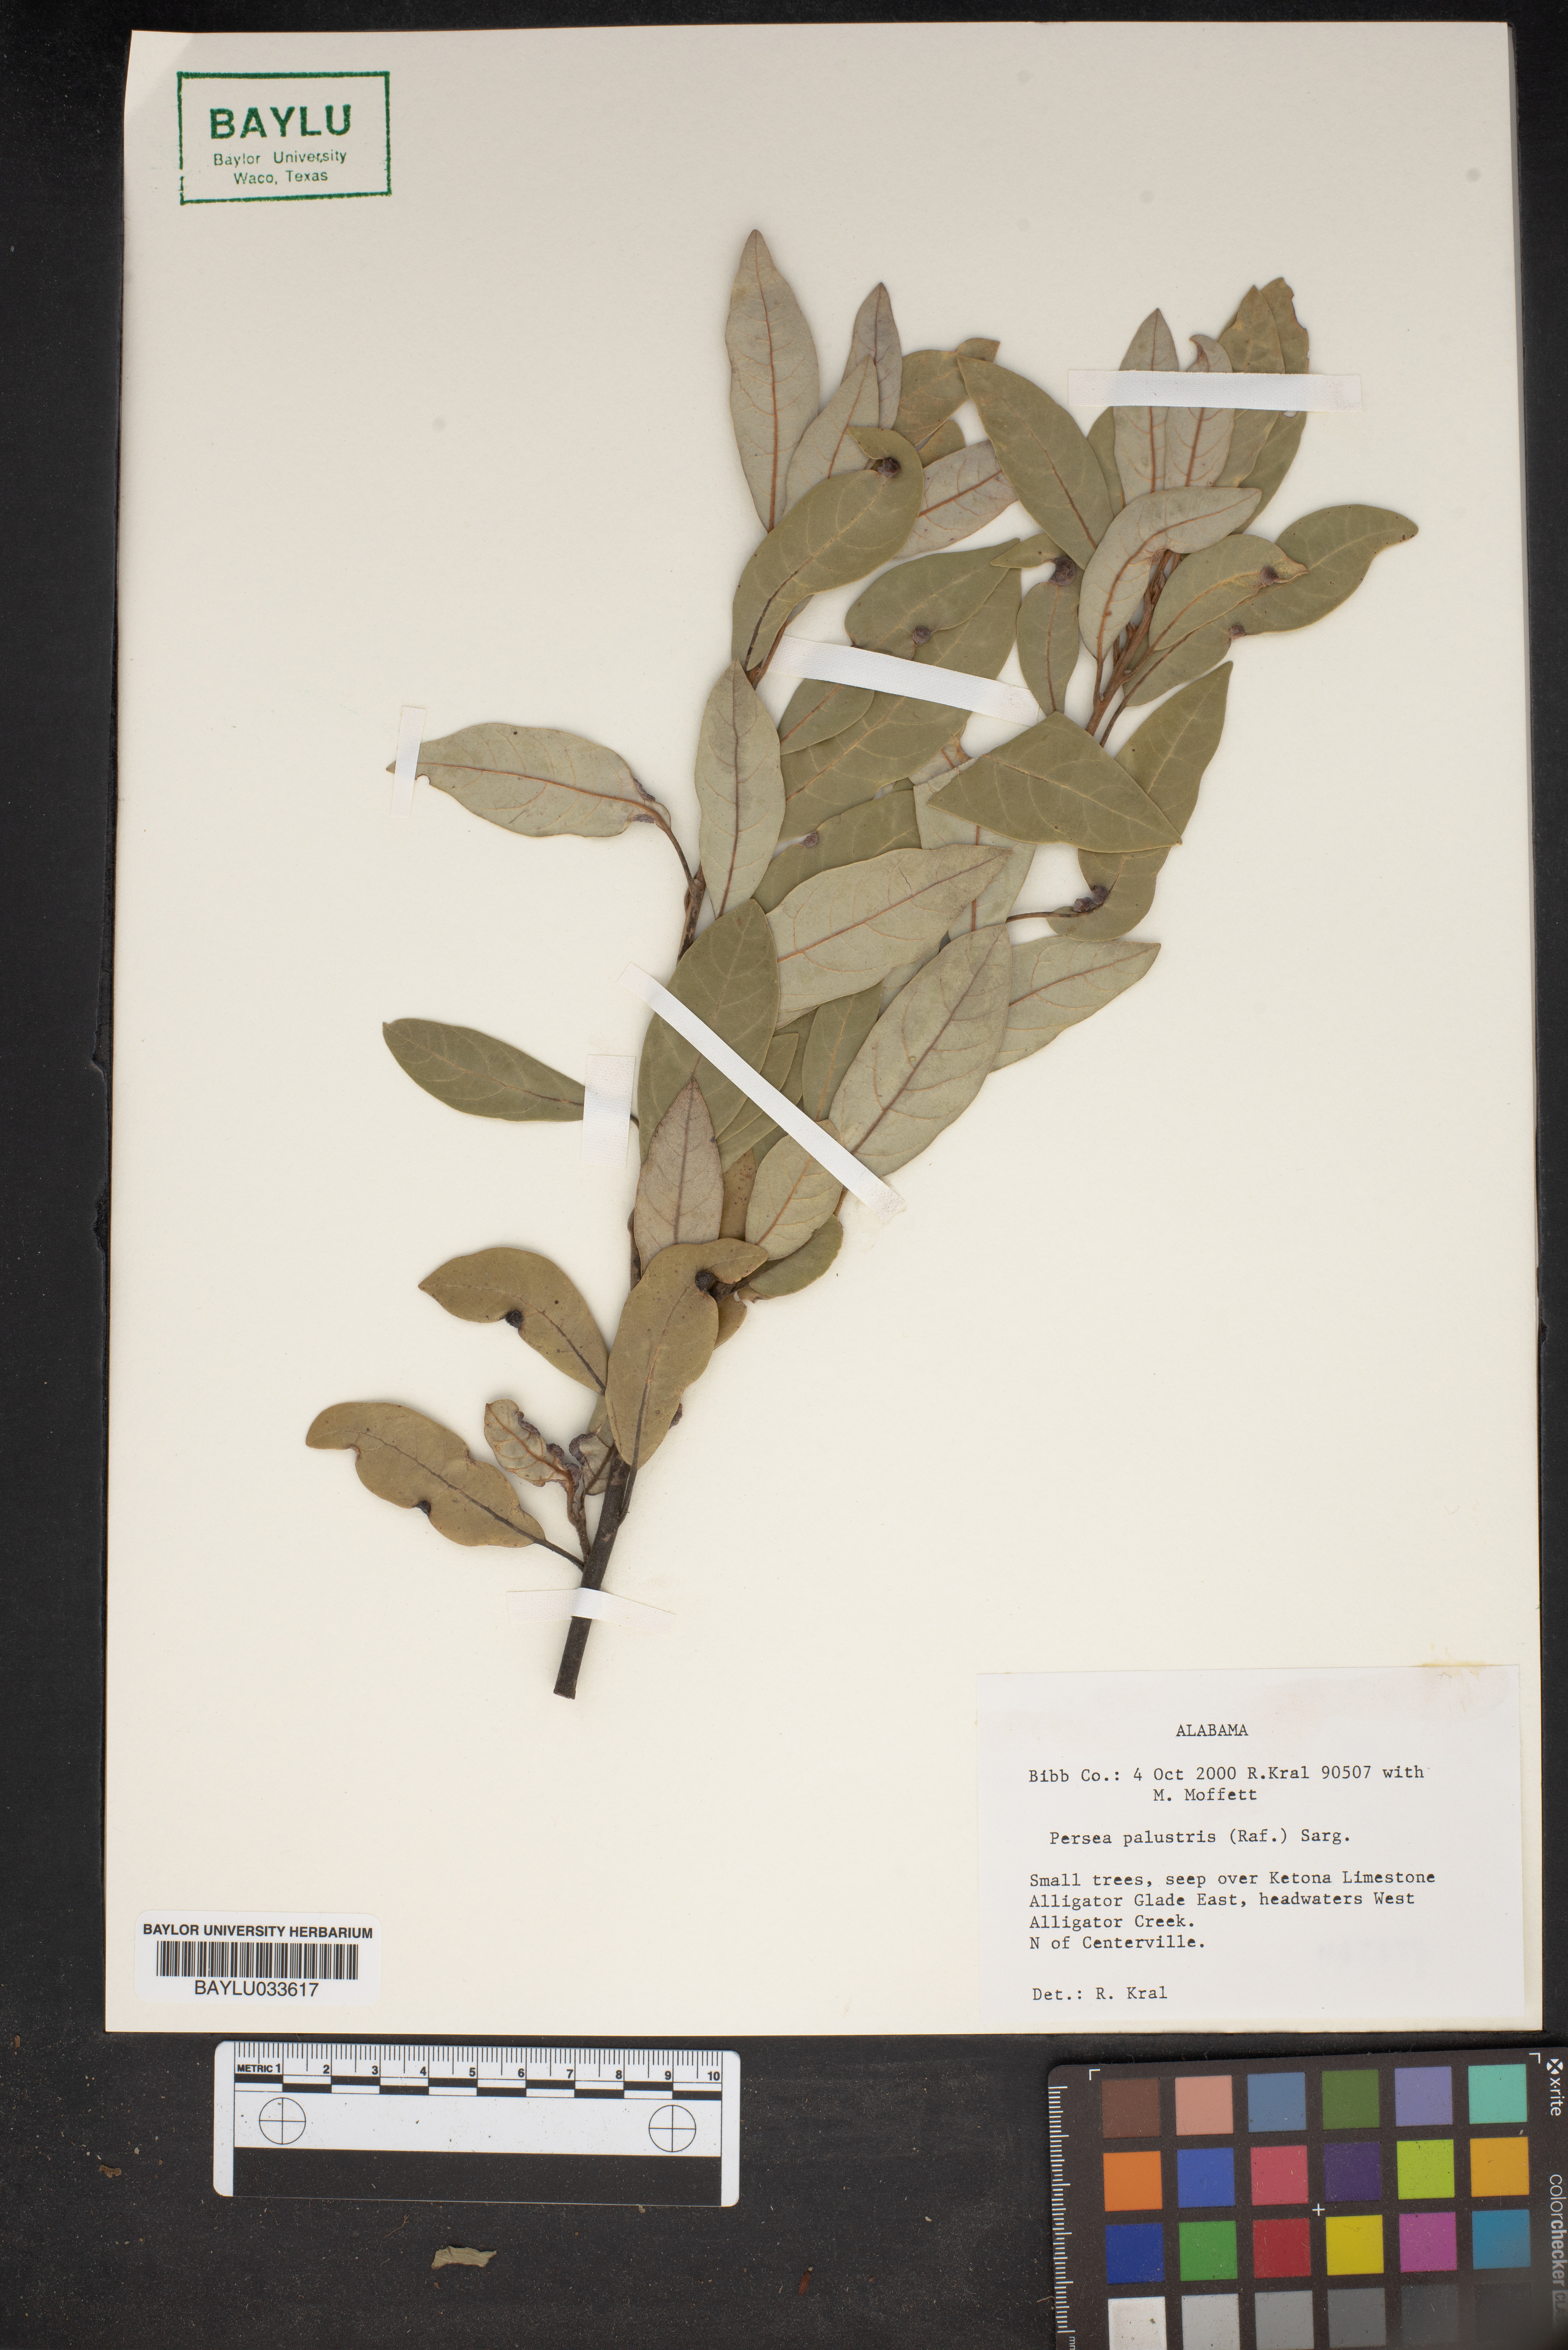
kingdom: Plantae
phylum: Tracheophyta
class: Magnoliopsida
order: Laurales
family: Lauraceae
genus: Persea
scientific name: Persea palustris
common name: Swampbay
